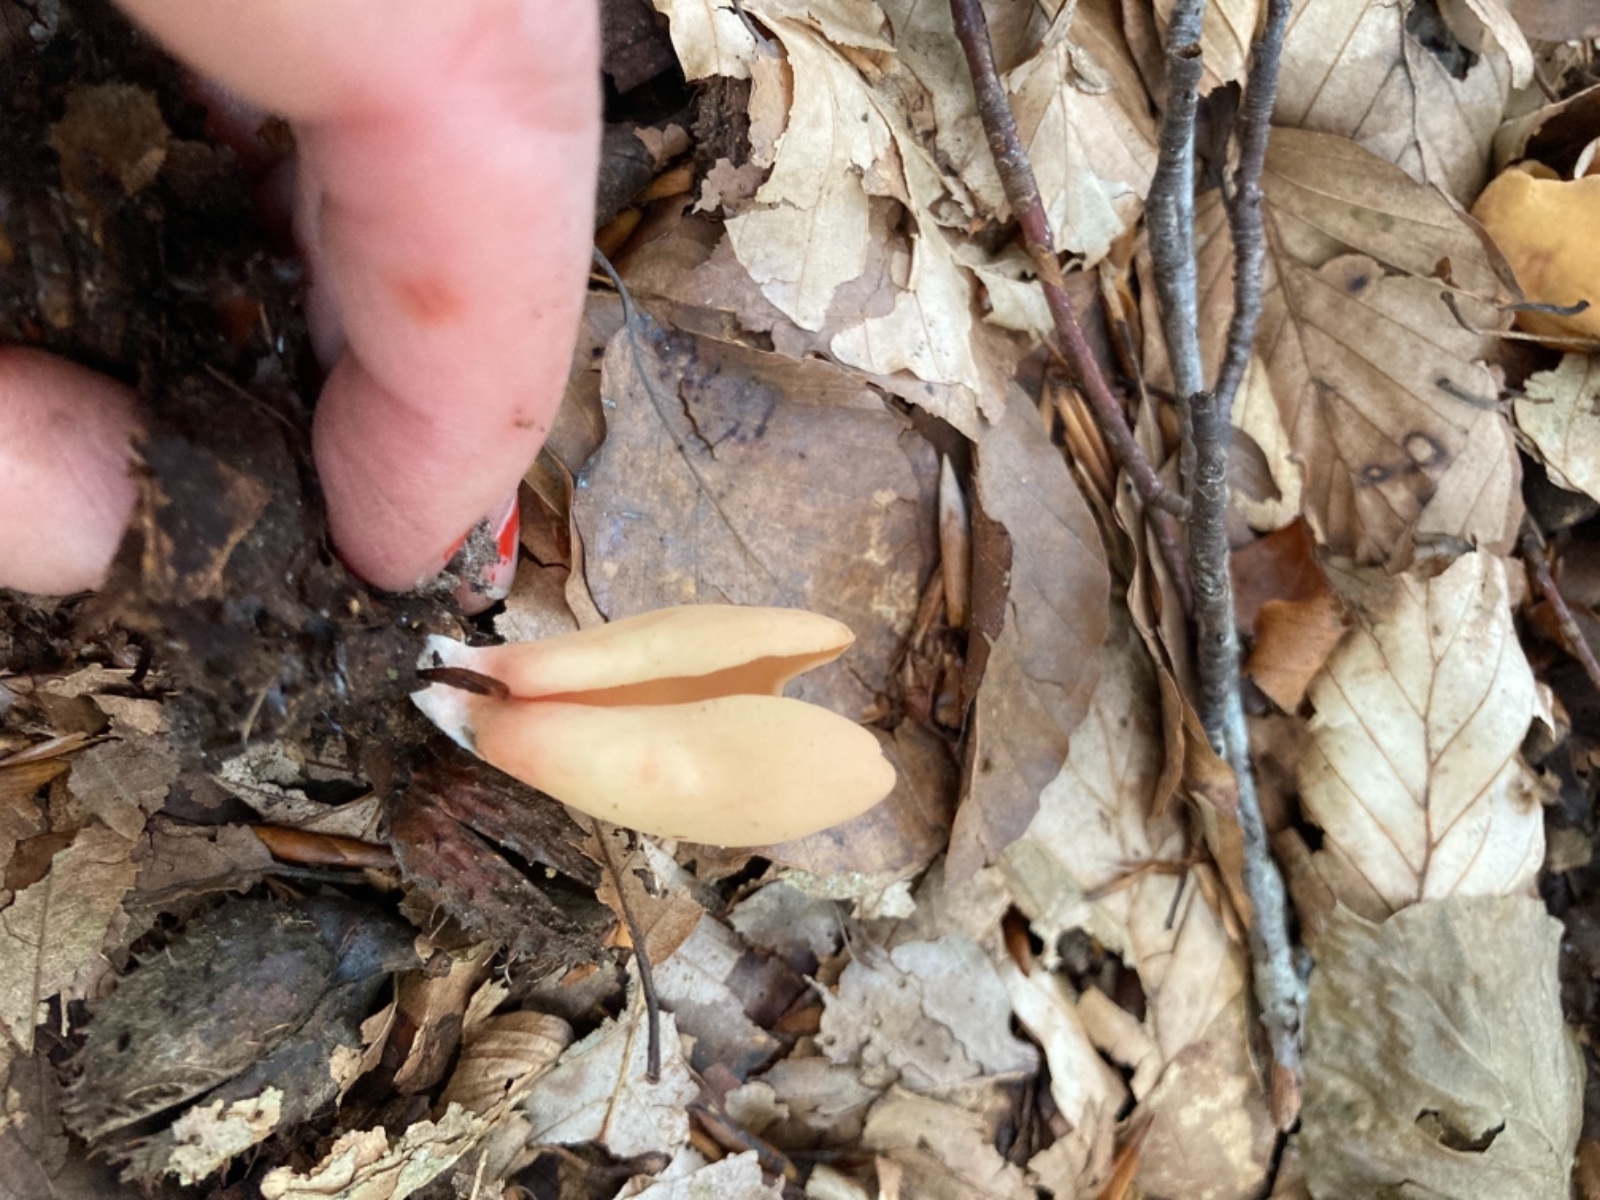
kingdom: Fungi
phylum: Ascomycota
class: Pezizomycetes
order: Pezizales
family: Otideaceae
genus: Otidea
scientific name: Otidea onotica
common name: æsel-ørebæger
